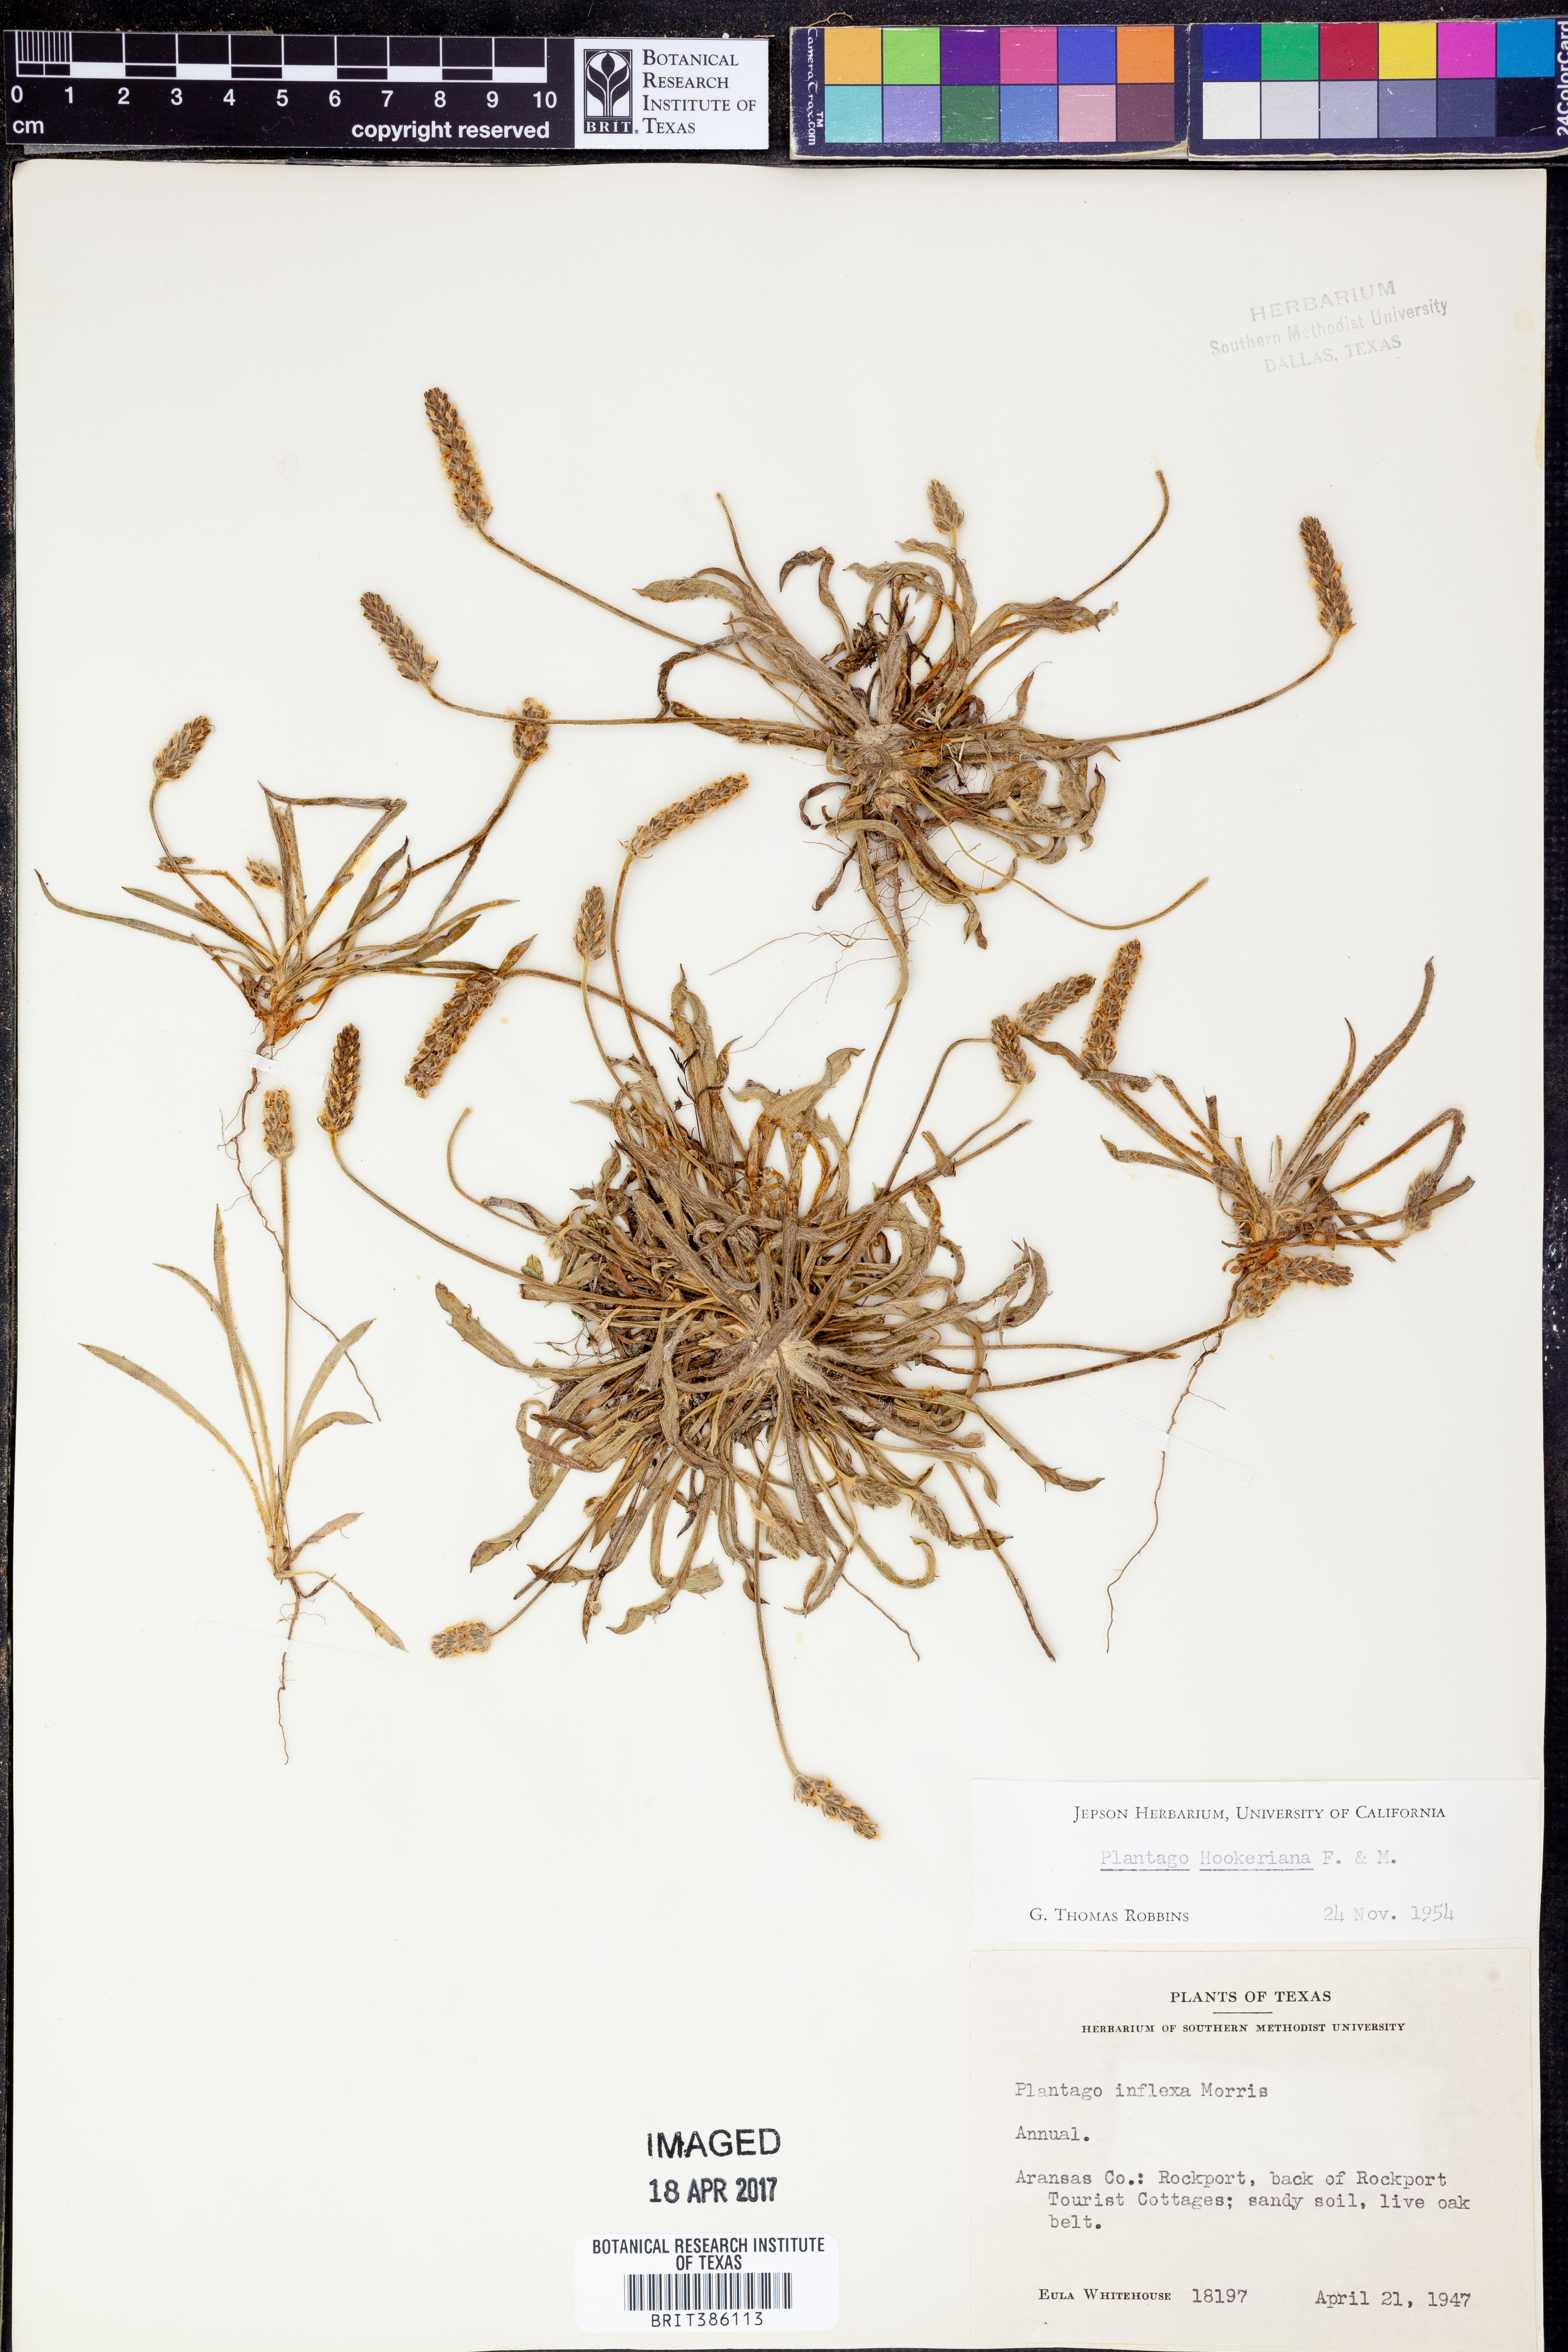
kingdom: Plantae
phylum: Tracheophyta
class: Magnoliopsida
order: Lamiales
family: Plantaginaceae
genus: Plantago
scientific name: Plantago hookeriana
